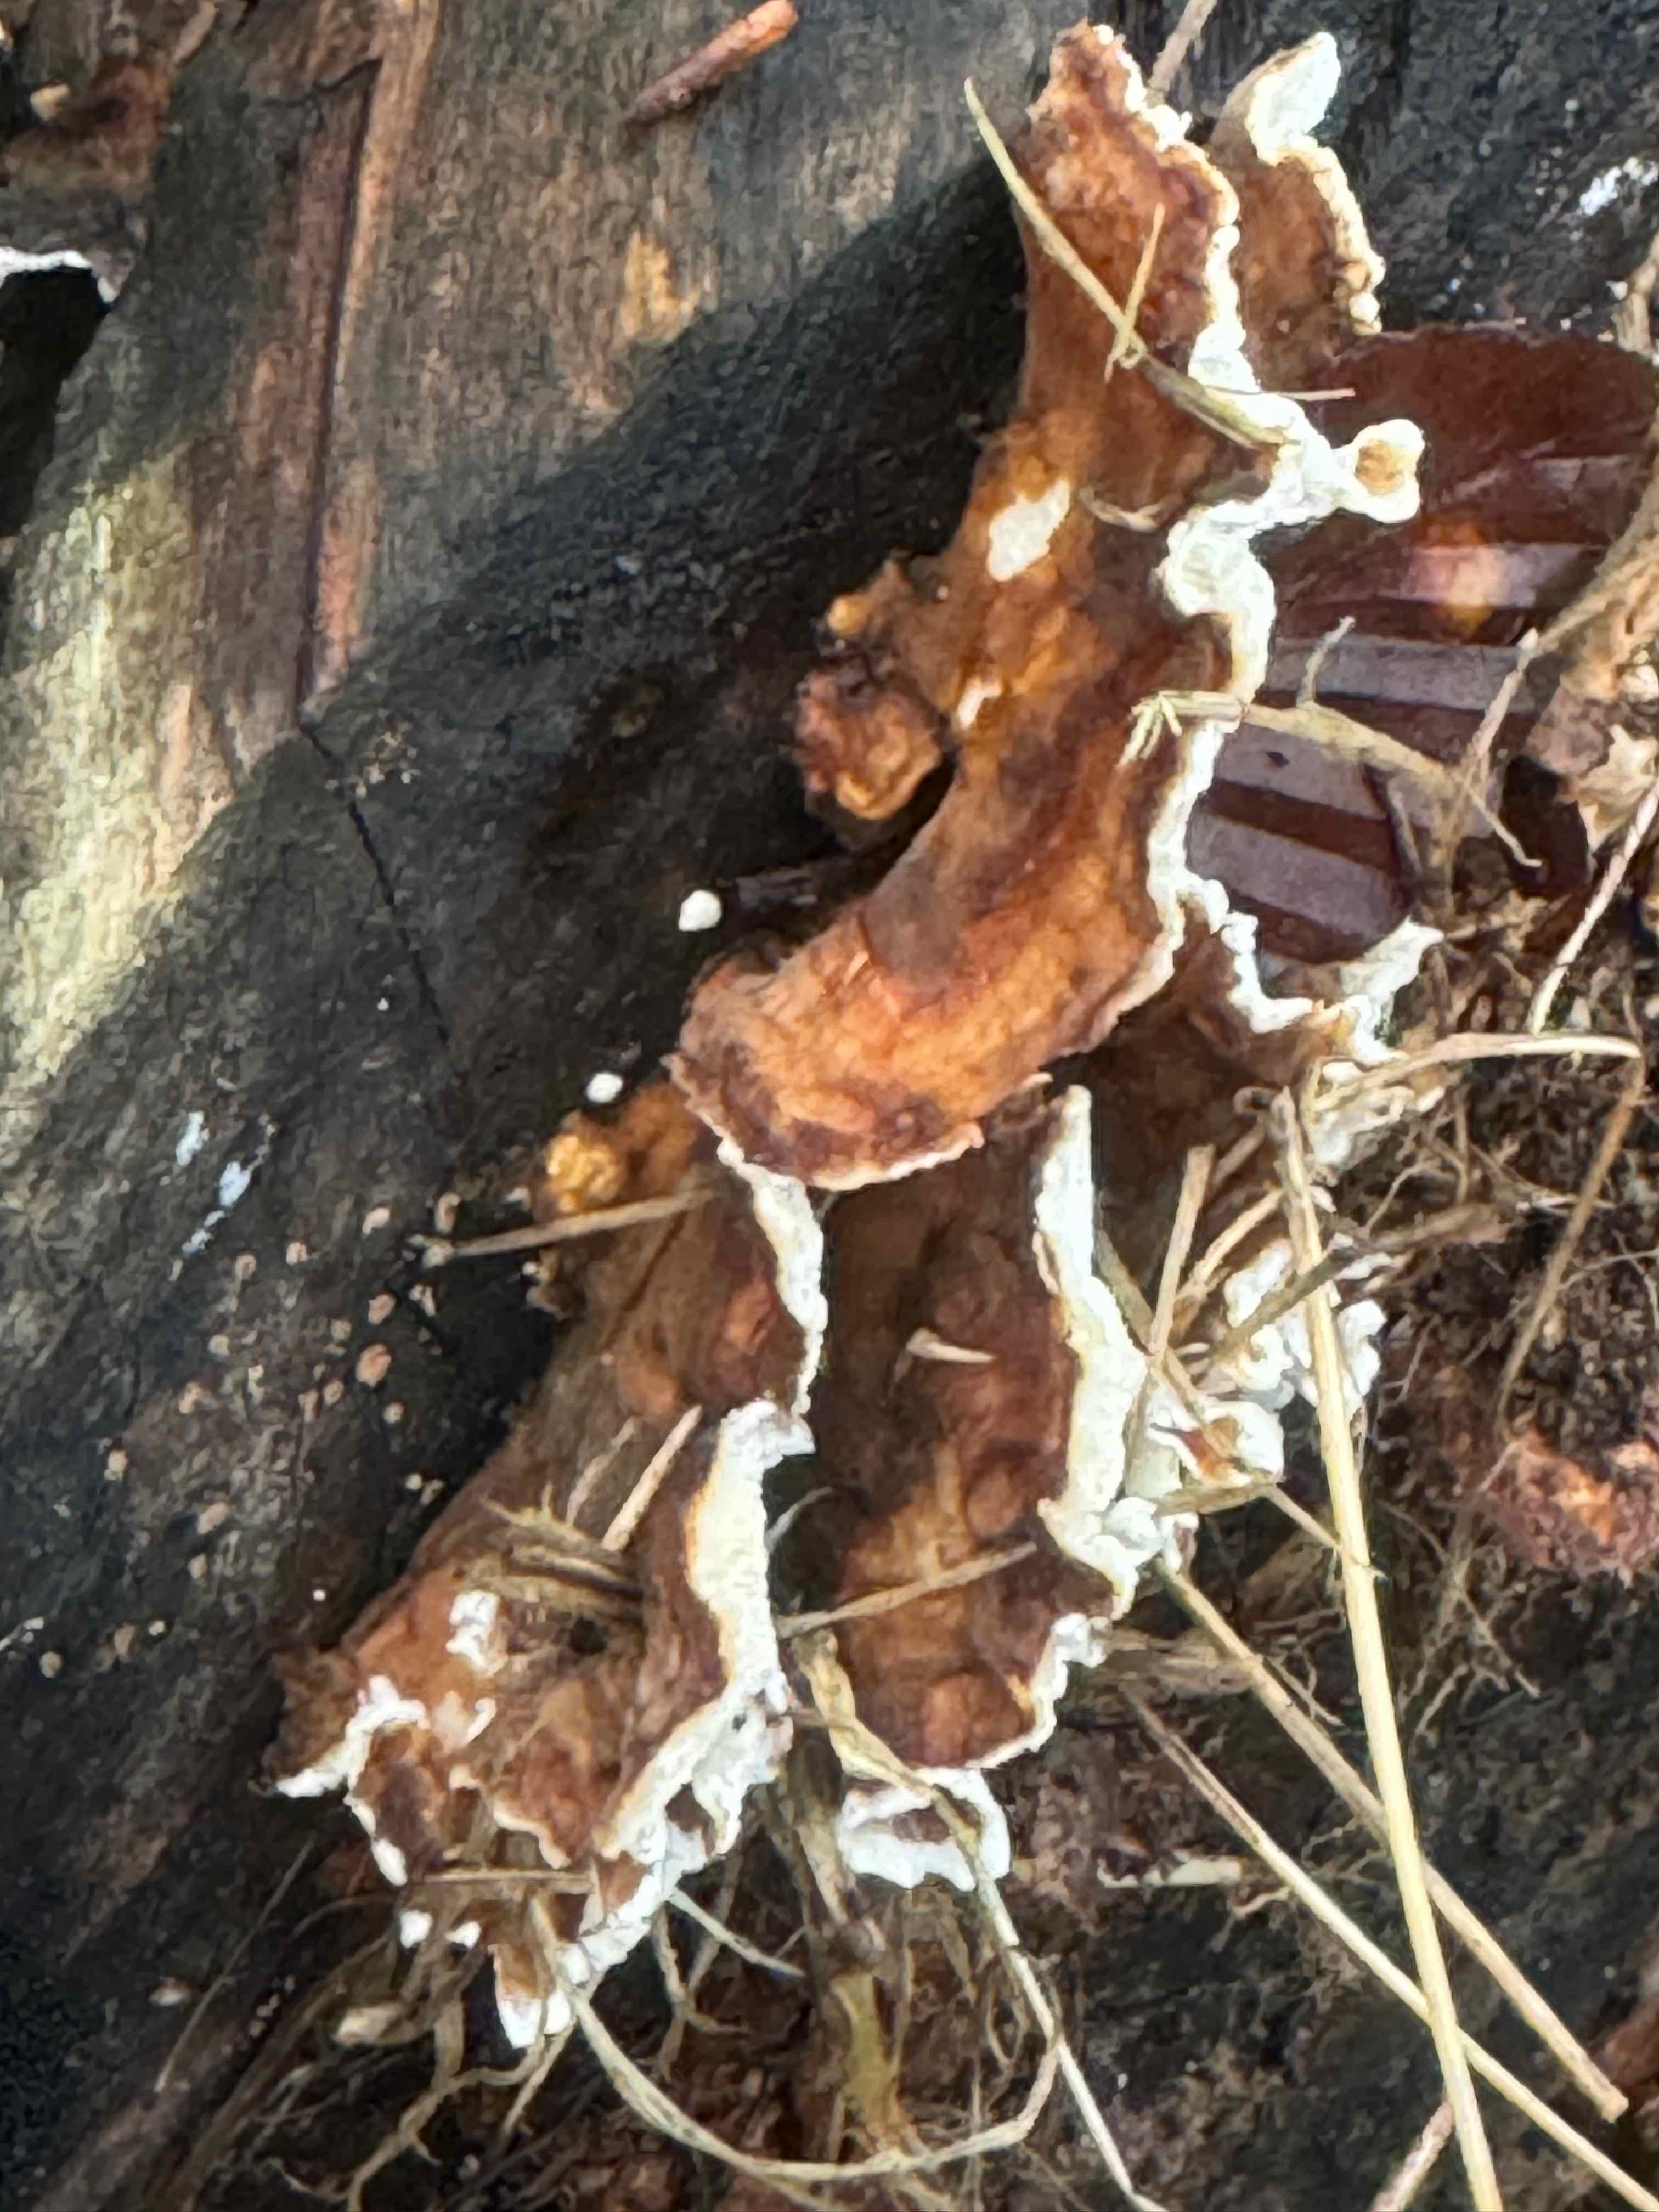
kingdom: Fungi
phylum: Basidiomycota
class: Agaricomycetes
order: Polyporales
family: Polyporaceae
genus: Trametes
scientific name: Trametes versicolor
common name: broget læderporesvamp
